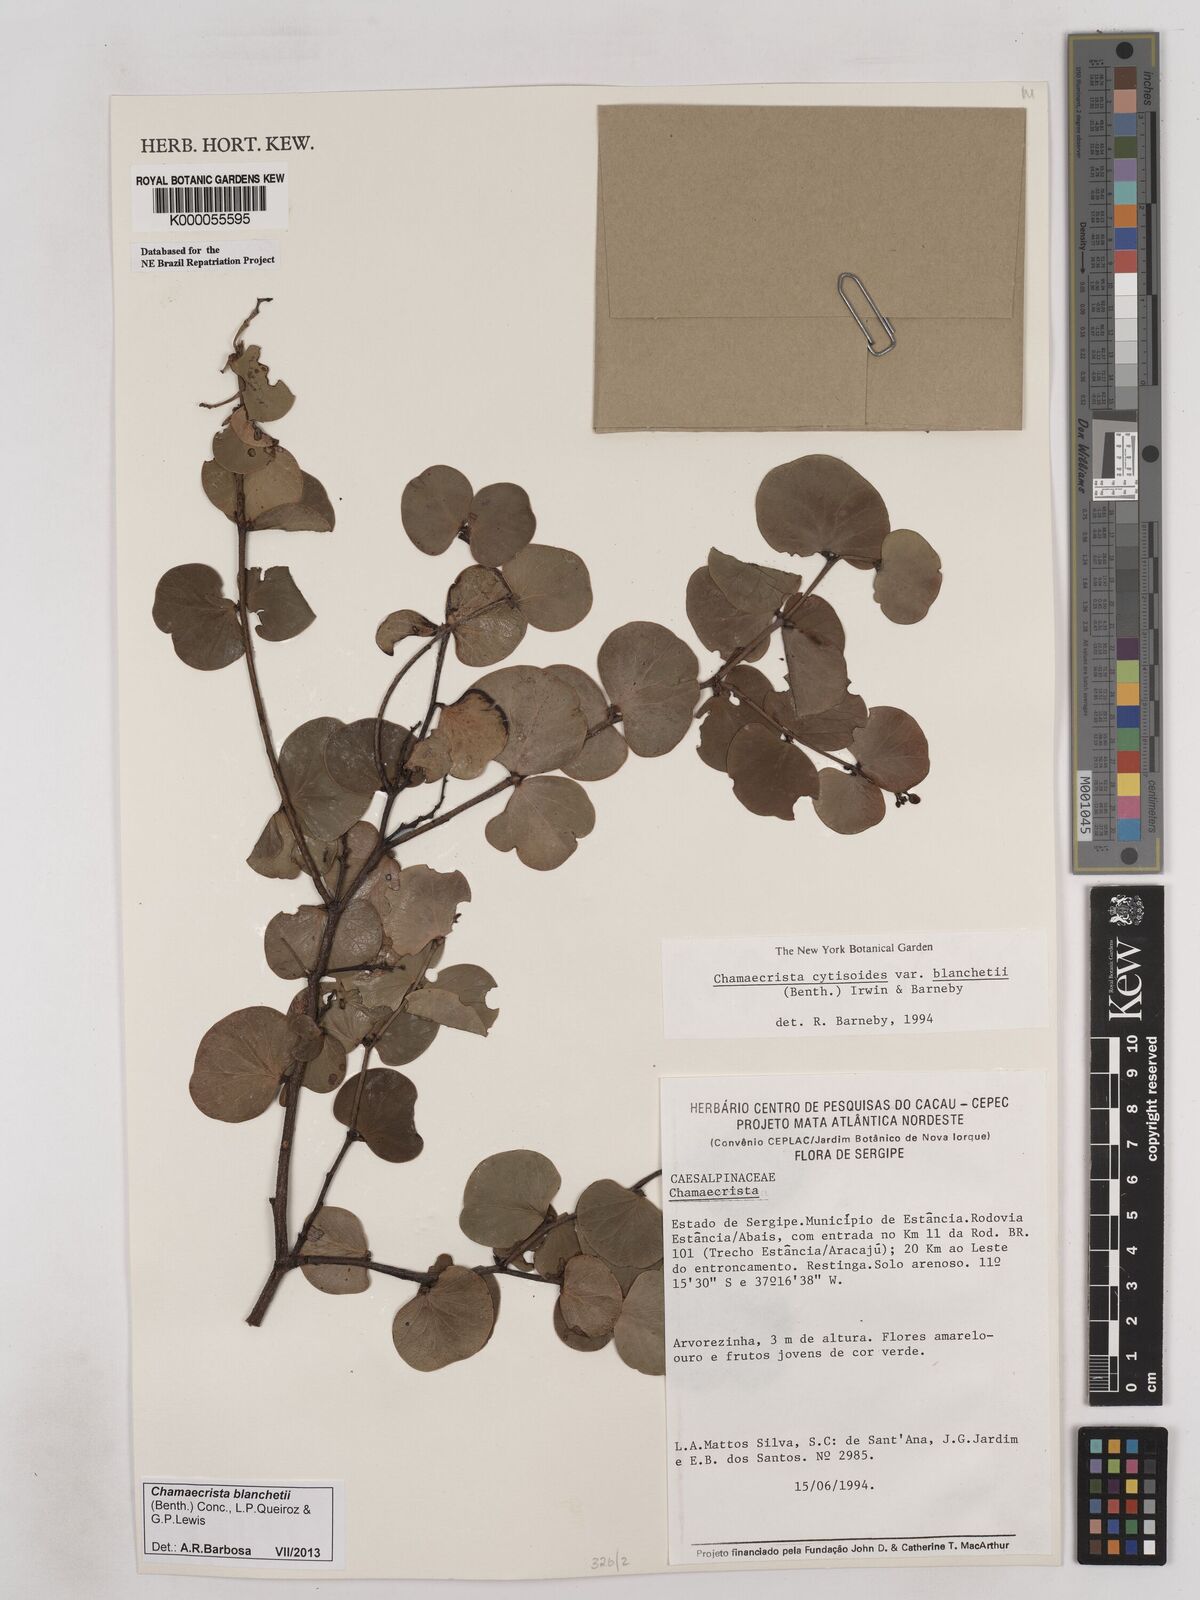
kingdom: Plantae
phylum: Tracheophyta
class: Magnoliopsida
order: Fabales
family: Fabaceae
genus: Chamaecrista
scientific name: Chamaecrista cytisoides
